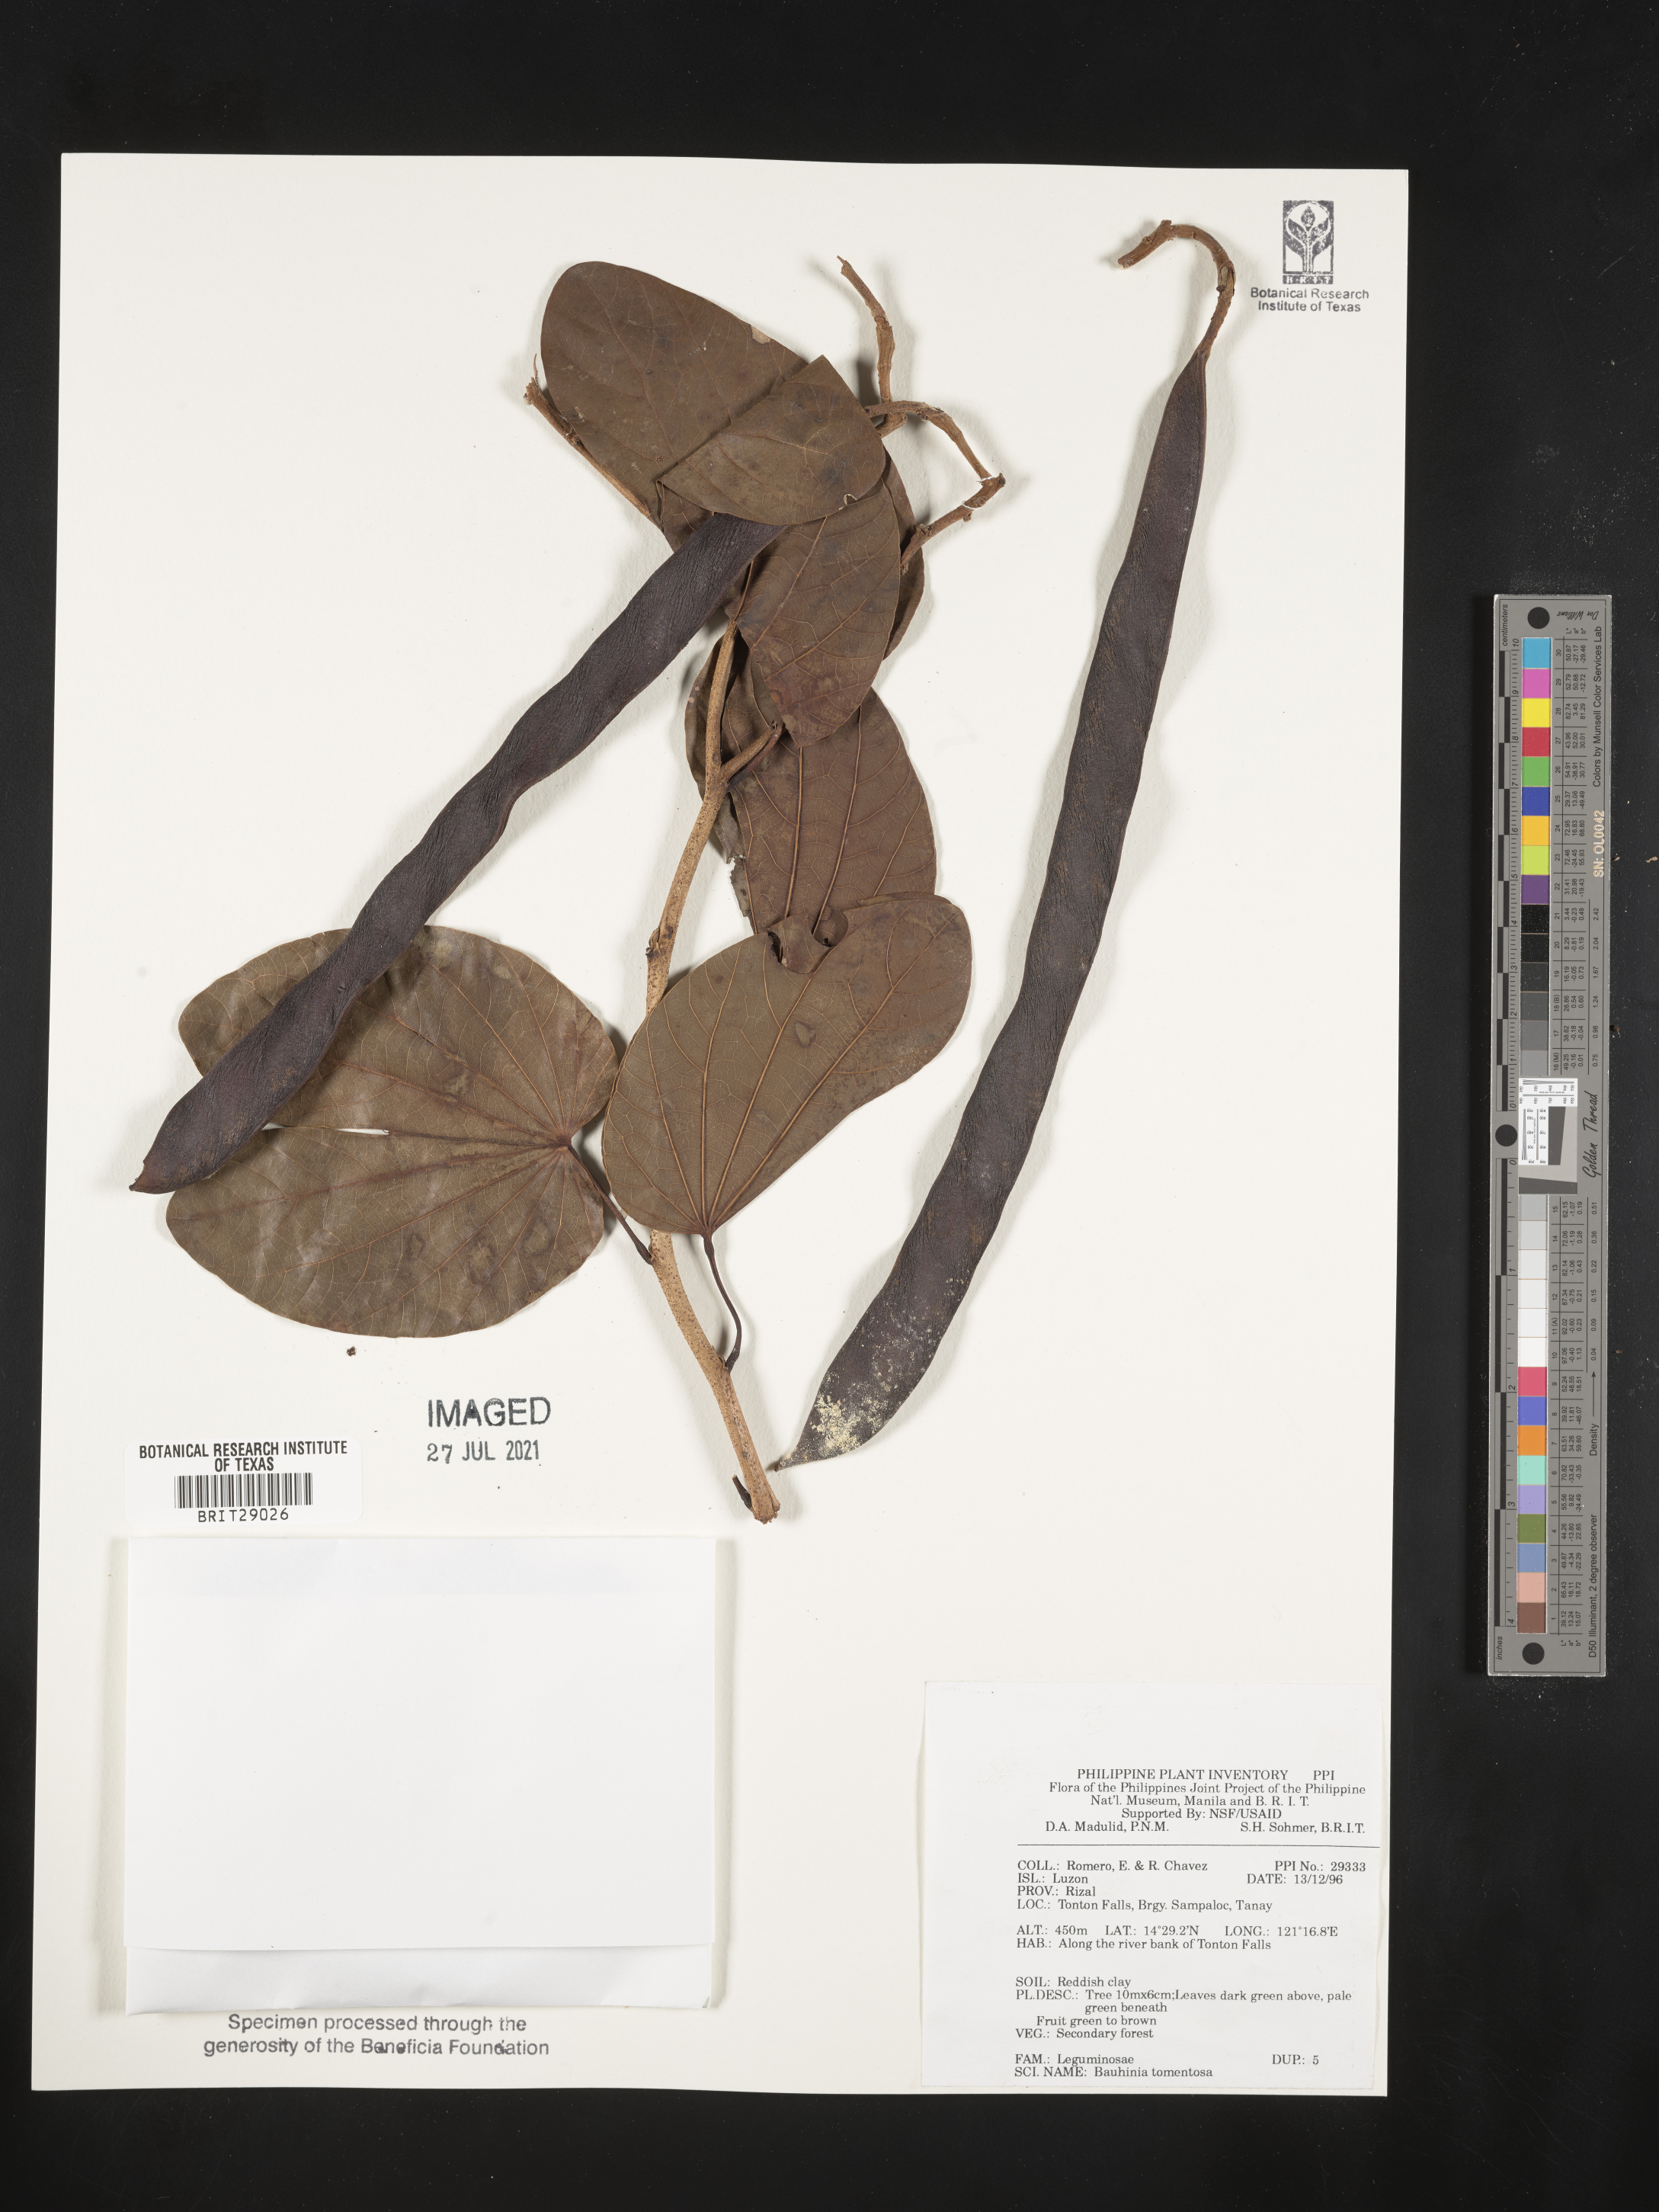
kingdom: Plantae
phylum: Tracheophyta
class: Magnoliopsida
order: Fabales
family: Fabaceae
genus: Bauhinia
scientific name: Bauhinia tomentosa
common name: Bell bauhinia
